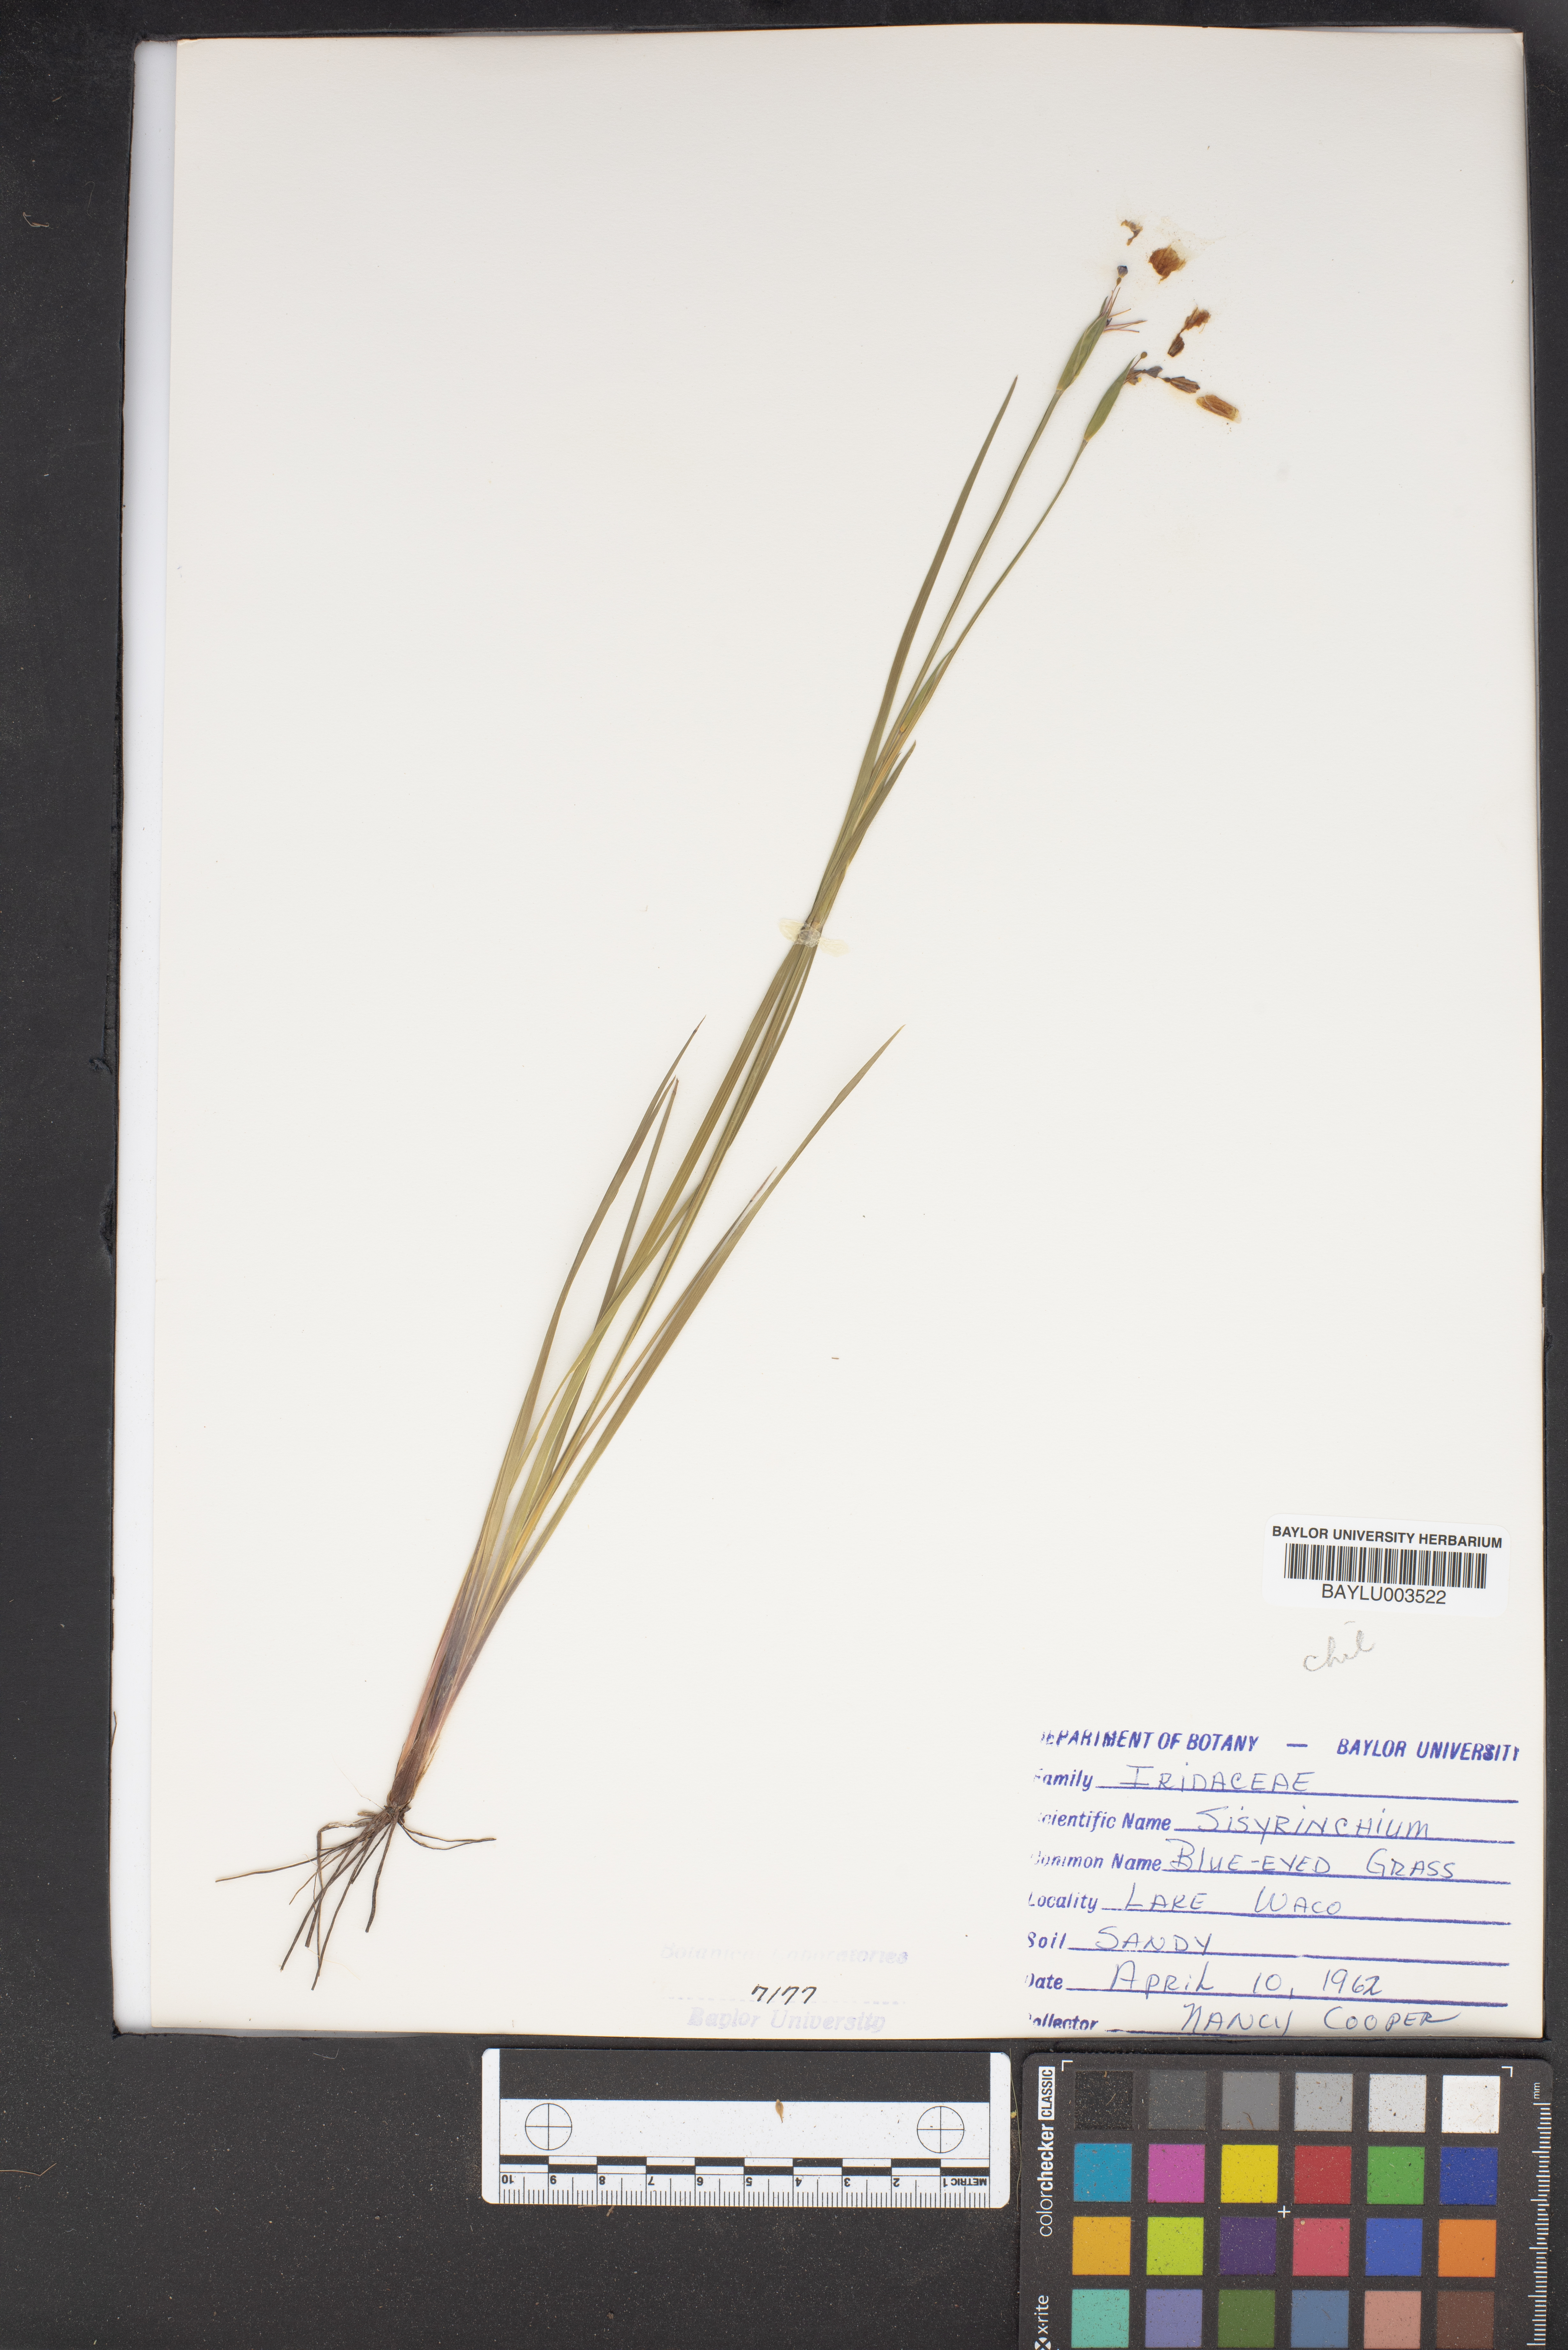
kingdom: Plantae
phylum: Tracheophyta
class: Liliopsida
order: Asparagales
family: Iridaceae
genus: Sisyrinchium
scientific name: Sisyrinchium
